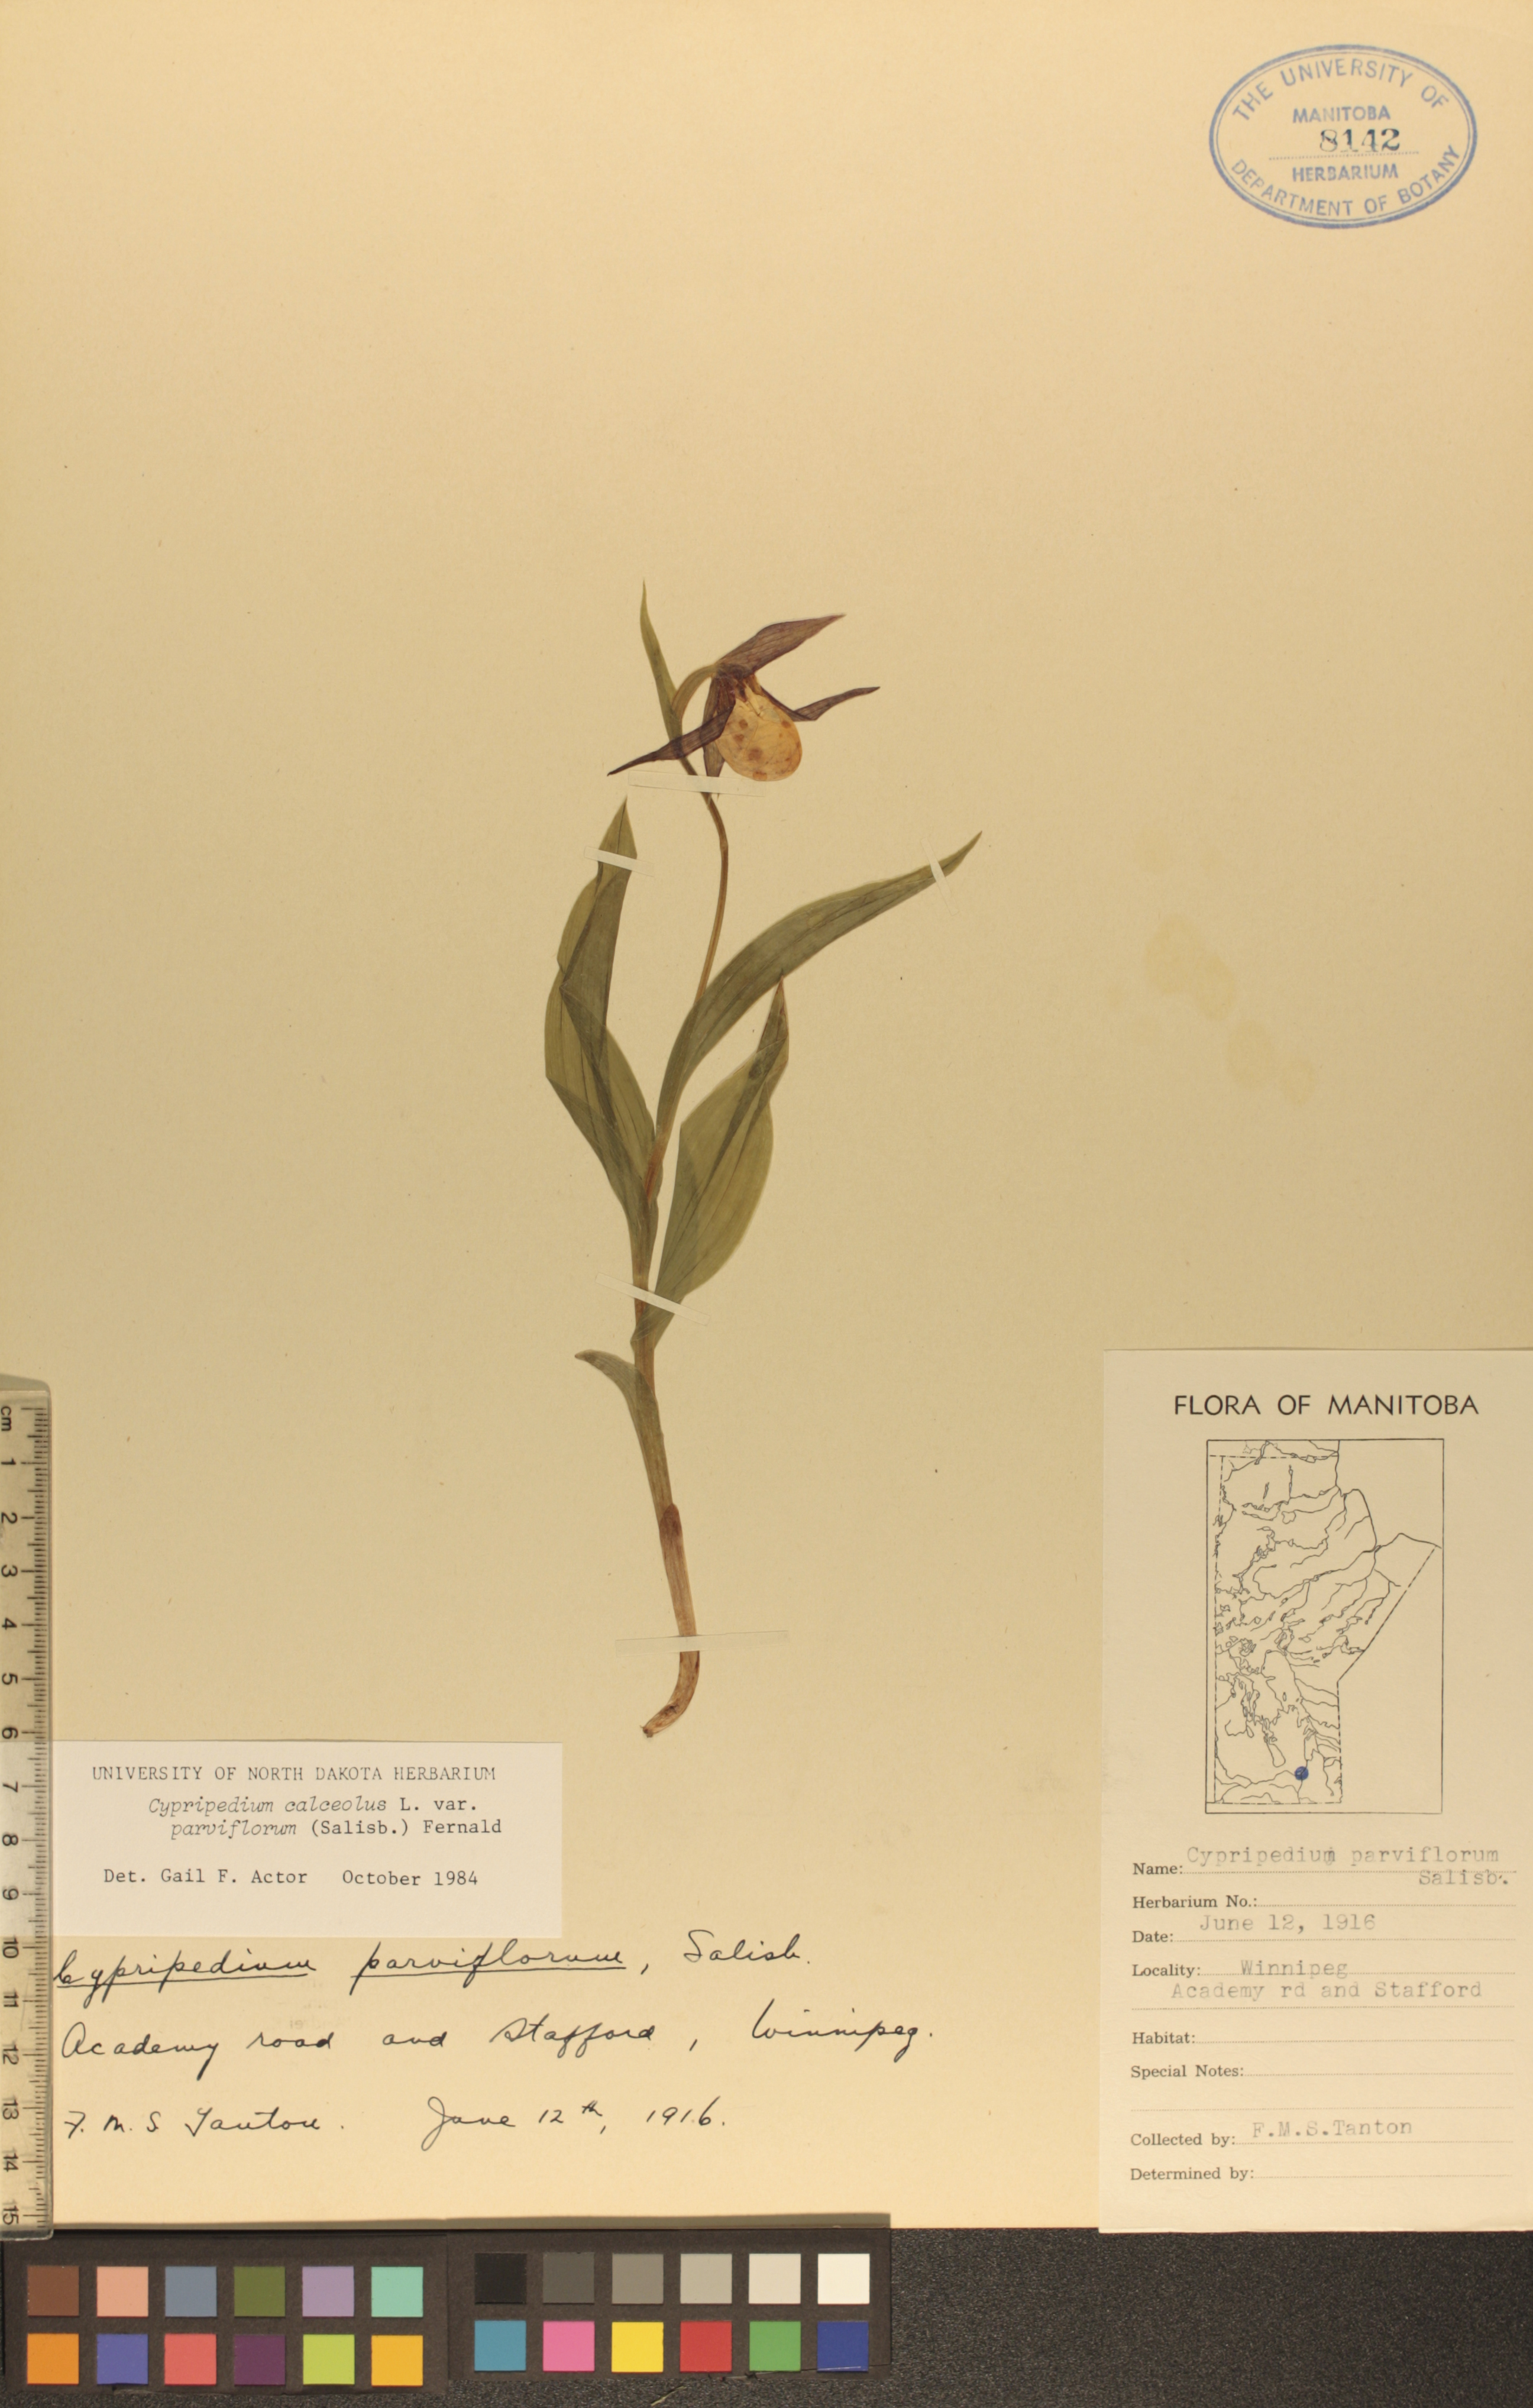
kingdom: Plantae
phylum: Tracheophyta
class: Liliopsida
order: Asparagales
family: Orchidaceae
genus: Cypripedium
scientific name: Cypripedium parviflorum
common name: American yellow lady's-slipper
